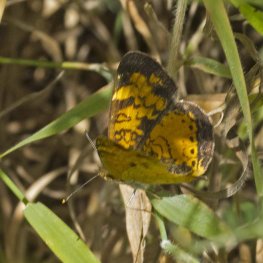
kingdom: Animalia
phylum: Arthropoda
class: Insecta
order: Lepidoptera
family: Nymphalidae
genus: Phyciodes
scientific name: Phyciodes tharos
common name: Northern Crescent
